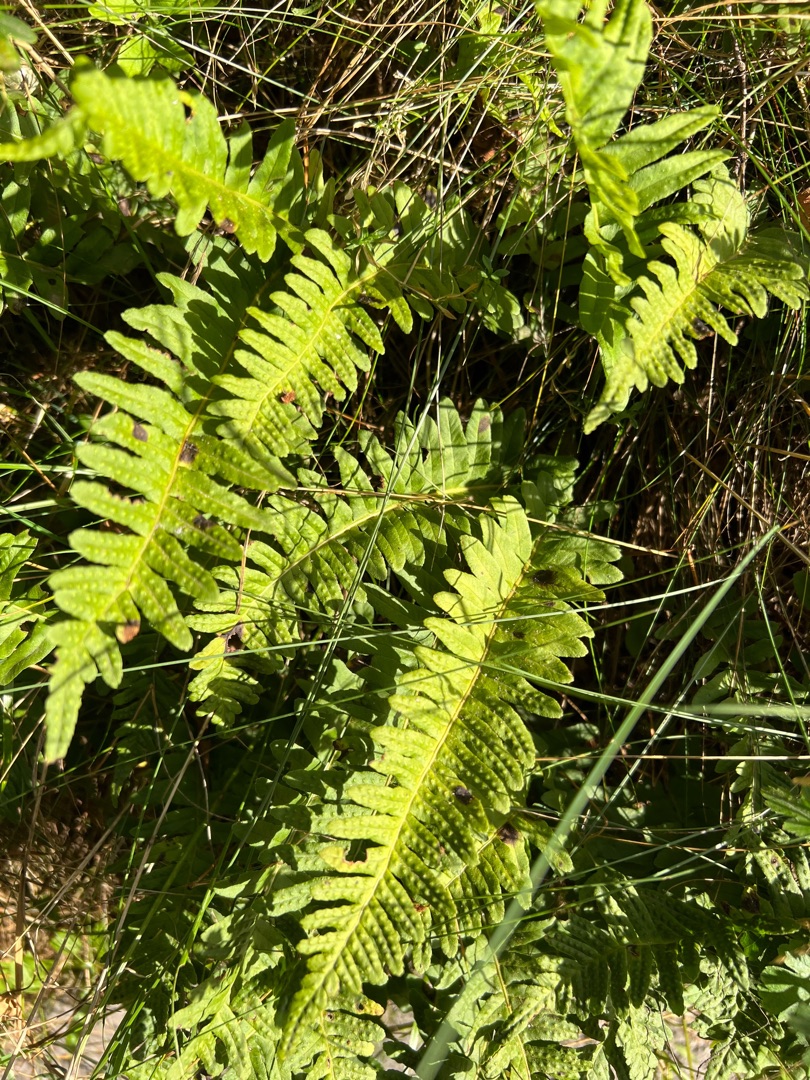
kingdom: Plantae
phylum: Tracheophyta
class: Polypodiopsida
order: Polypodiales
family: Polypodiaceae
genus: Polypodium
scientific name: Polypodium vulgare
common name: Almindelig engelsød
